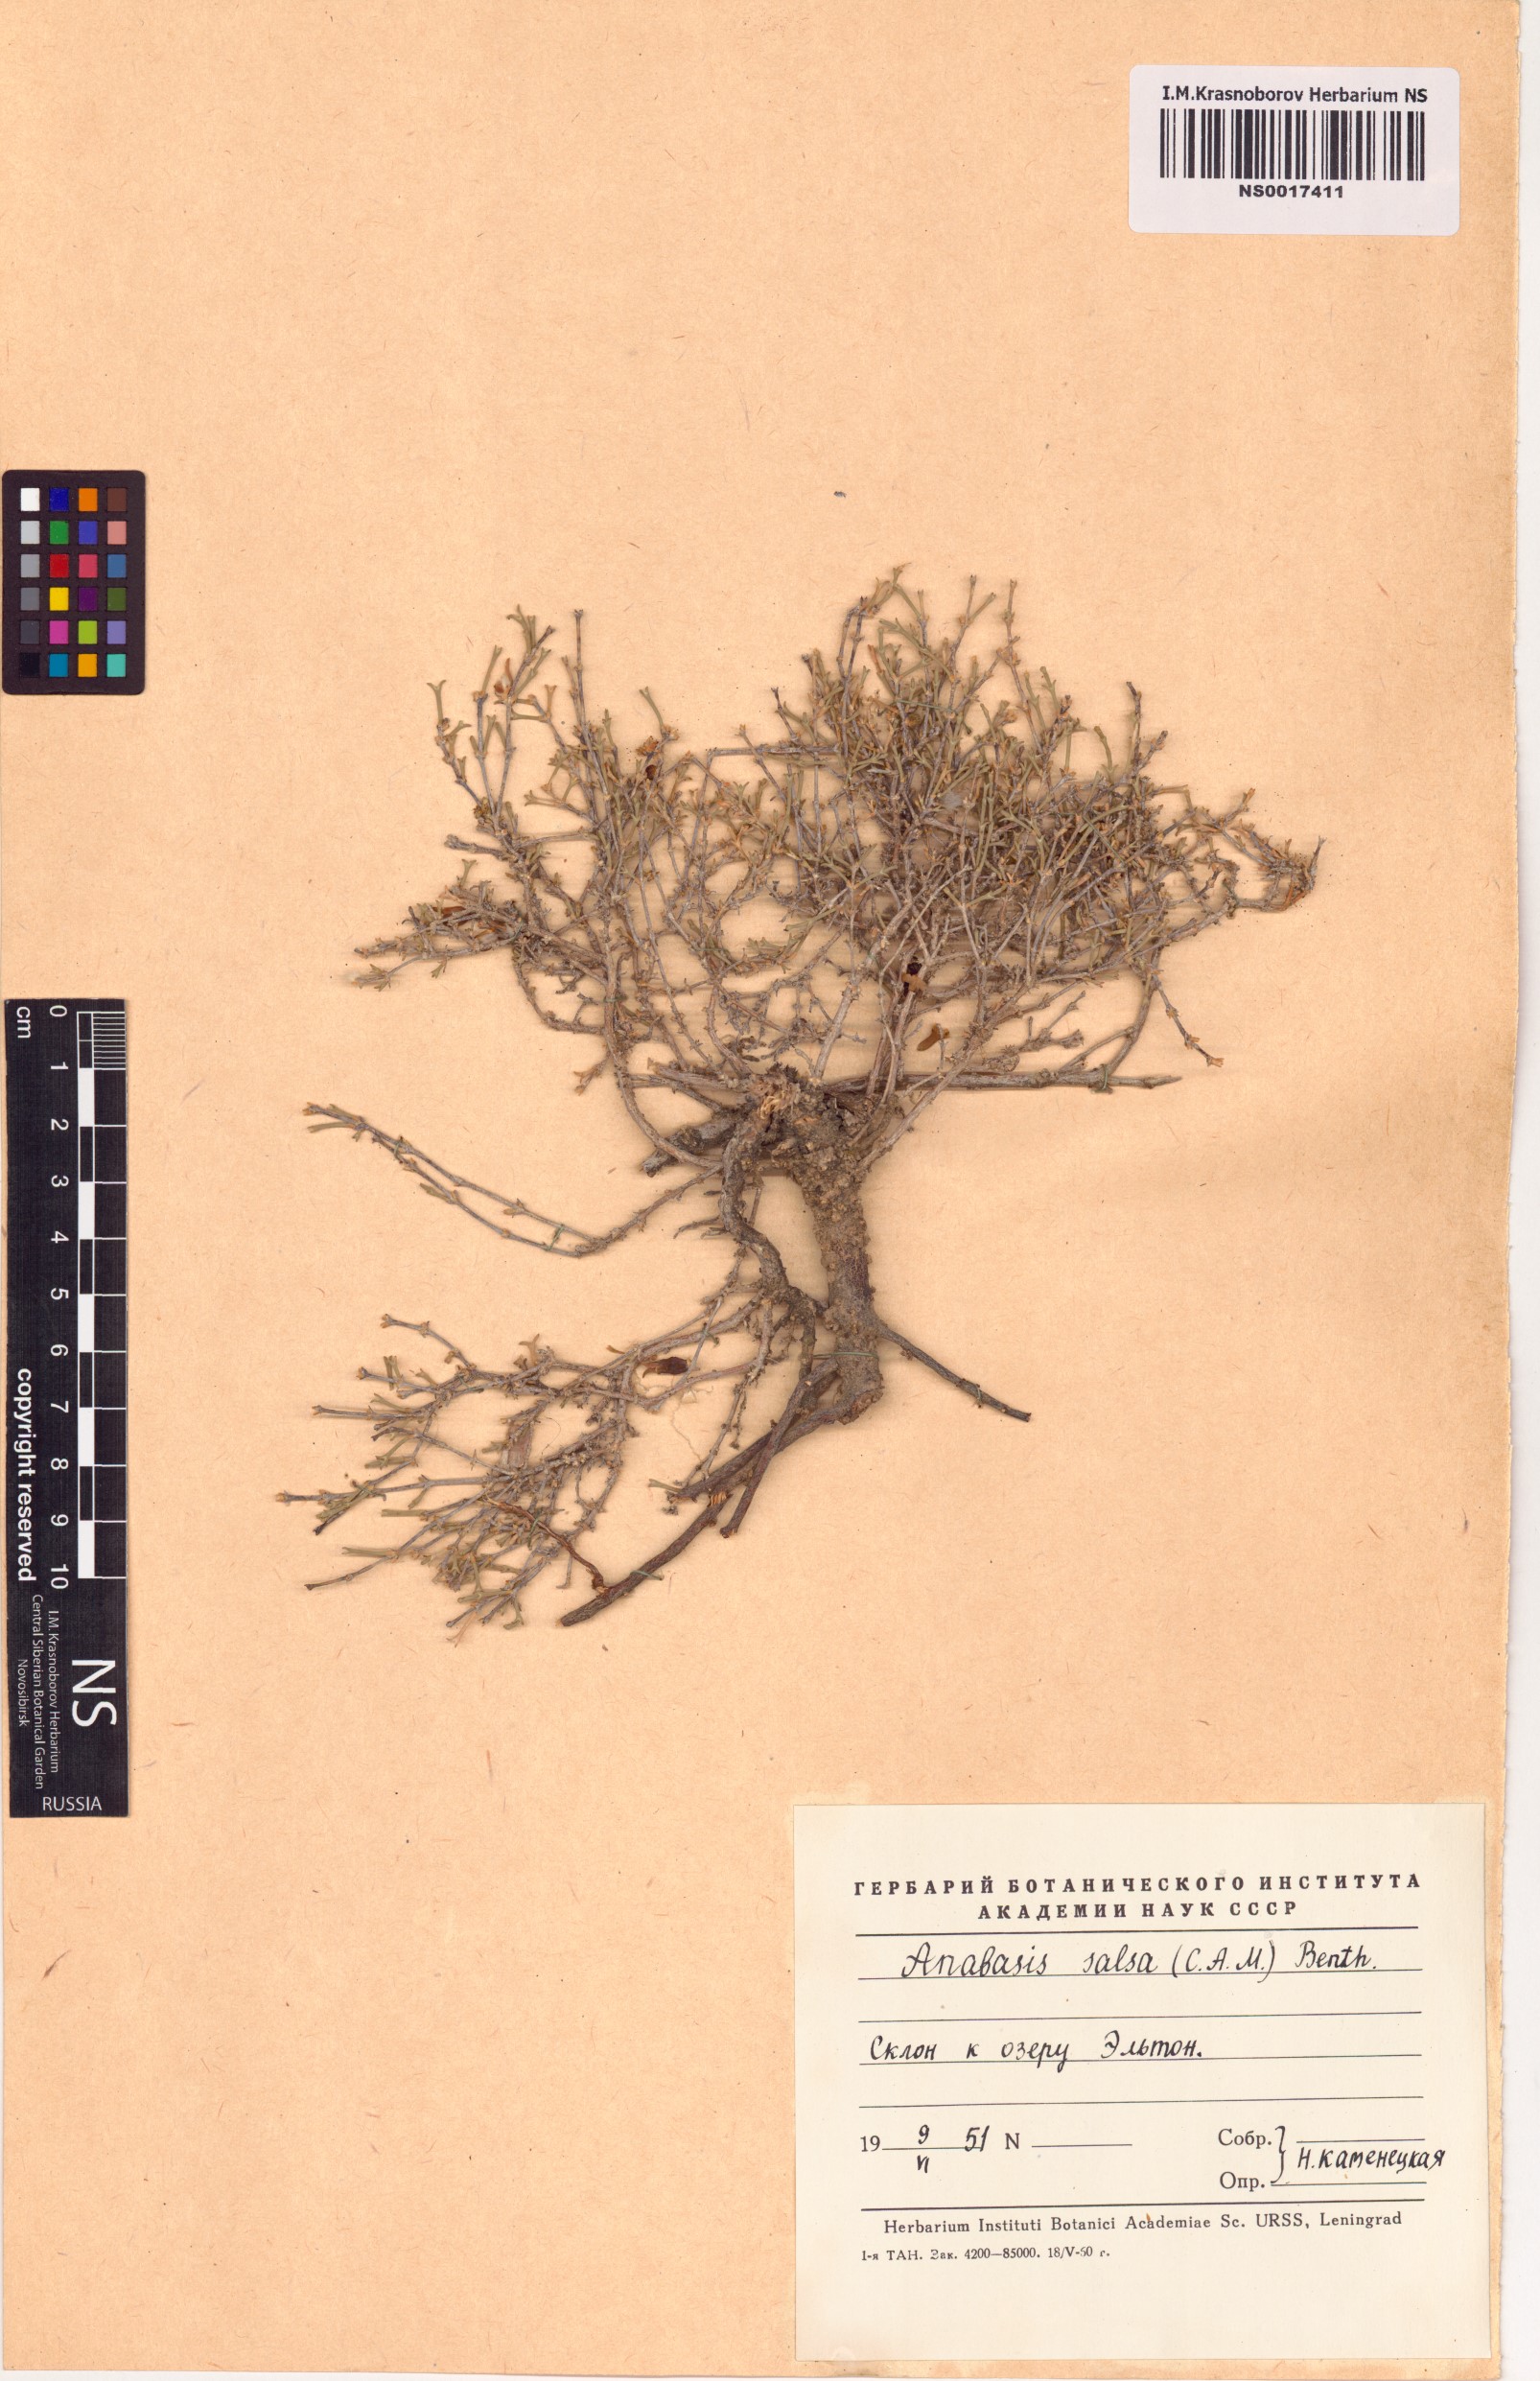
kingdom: Plantae
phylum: Tracheophyta
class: Magnoliopsida
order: Caryophyllales
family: Amaranthaceae
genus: Anabasis
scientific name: Anabasis salsa
